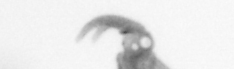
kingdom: Animalia
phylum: Annelida
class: Polychaeta
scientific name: Polychaeta
